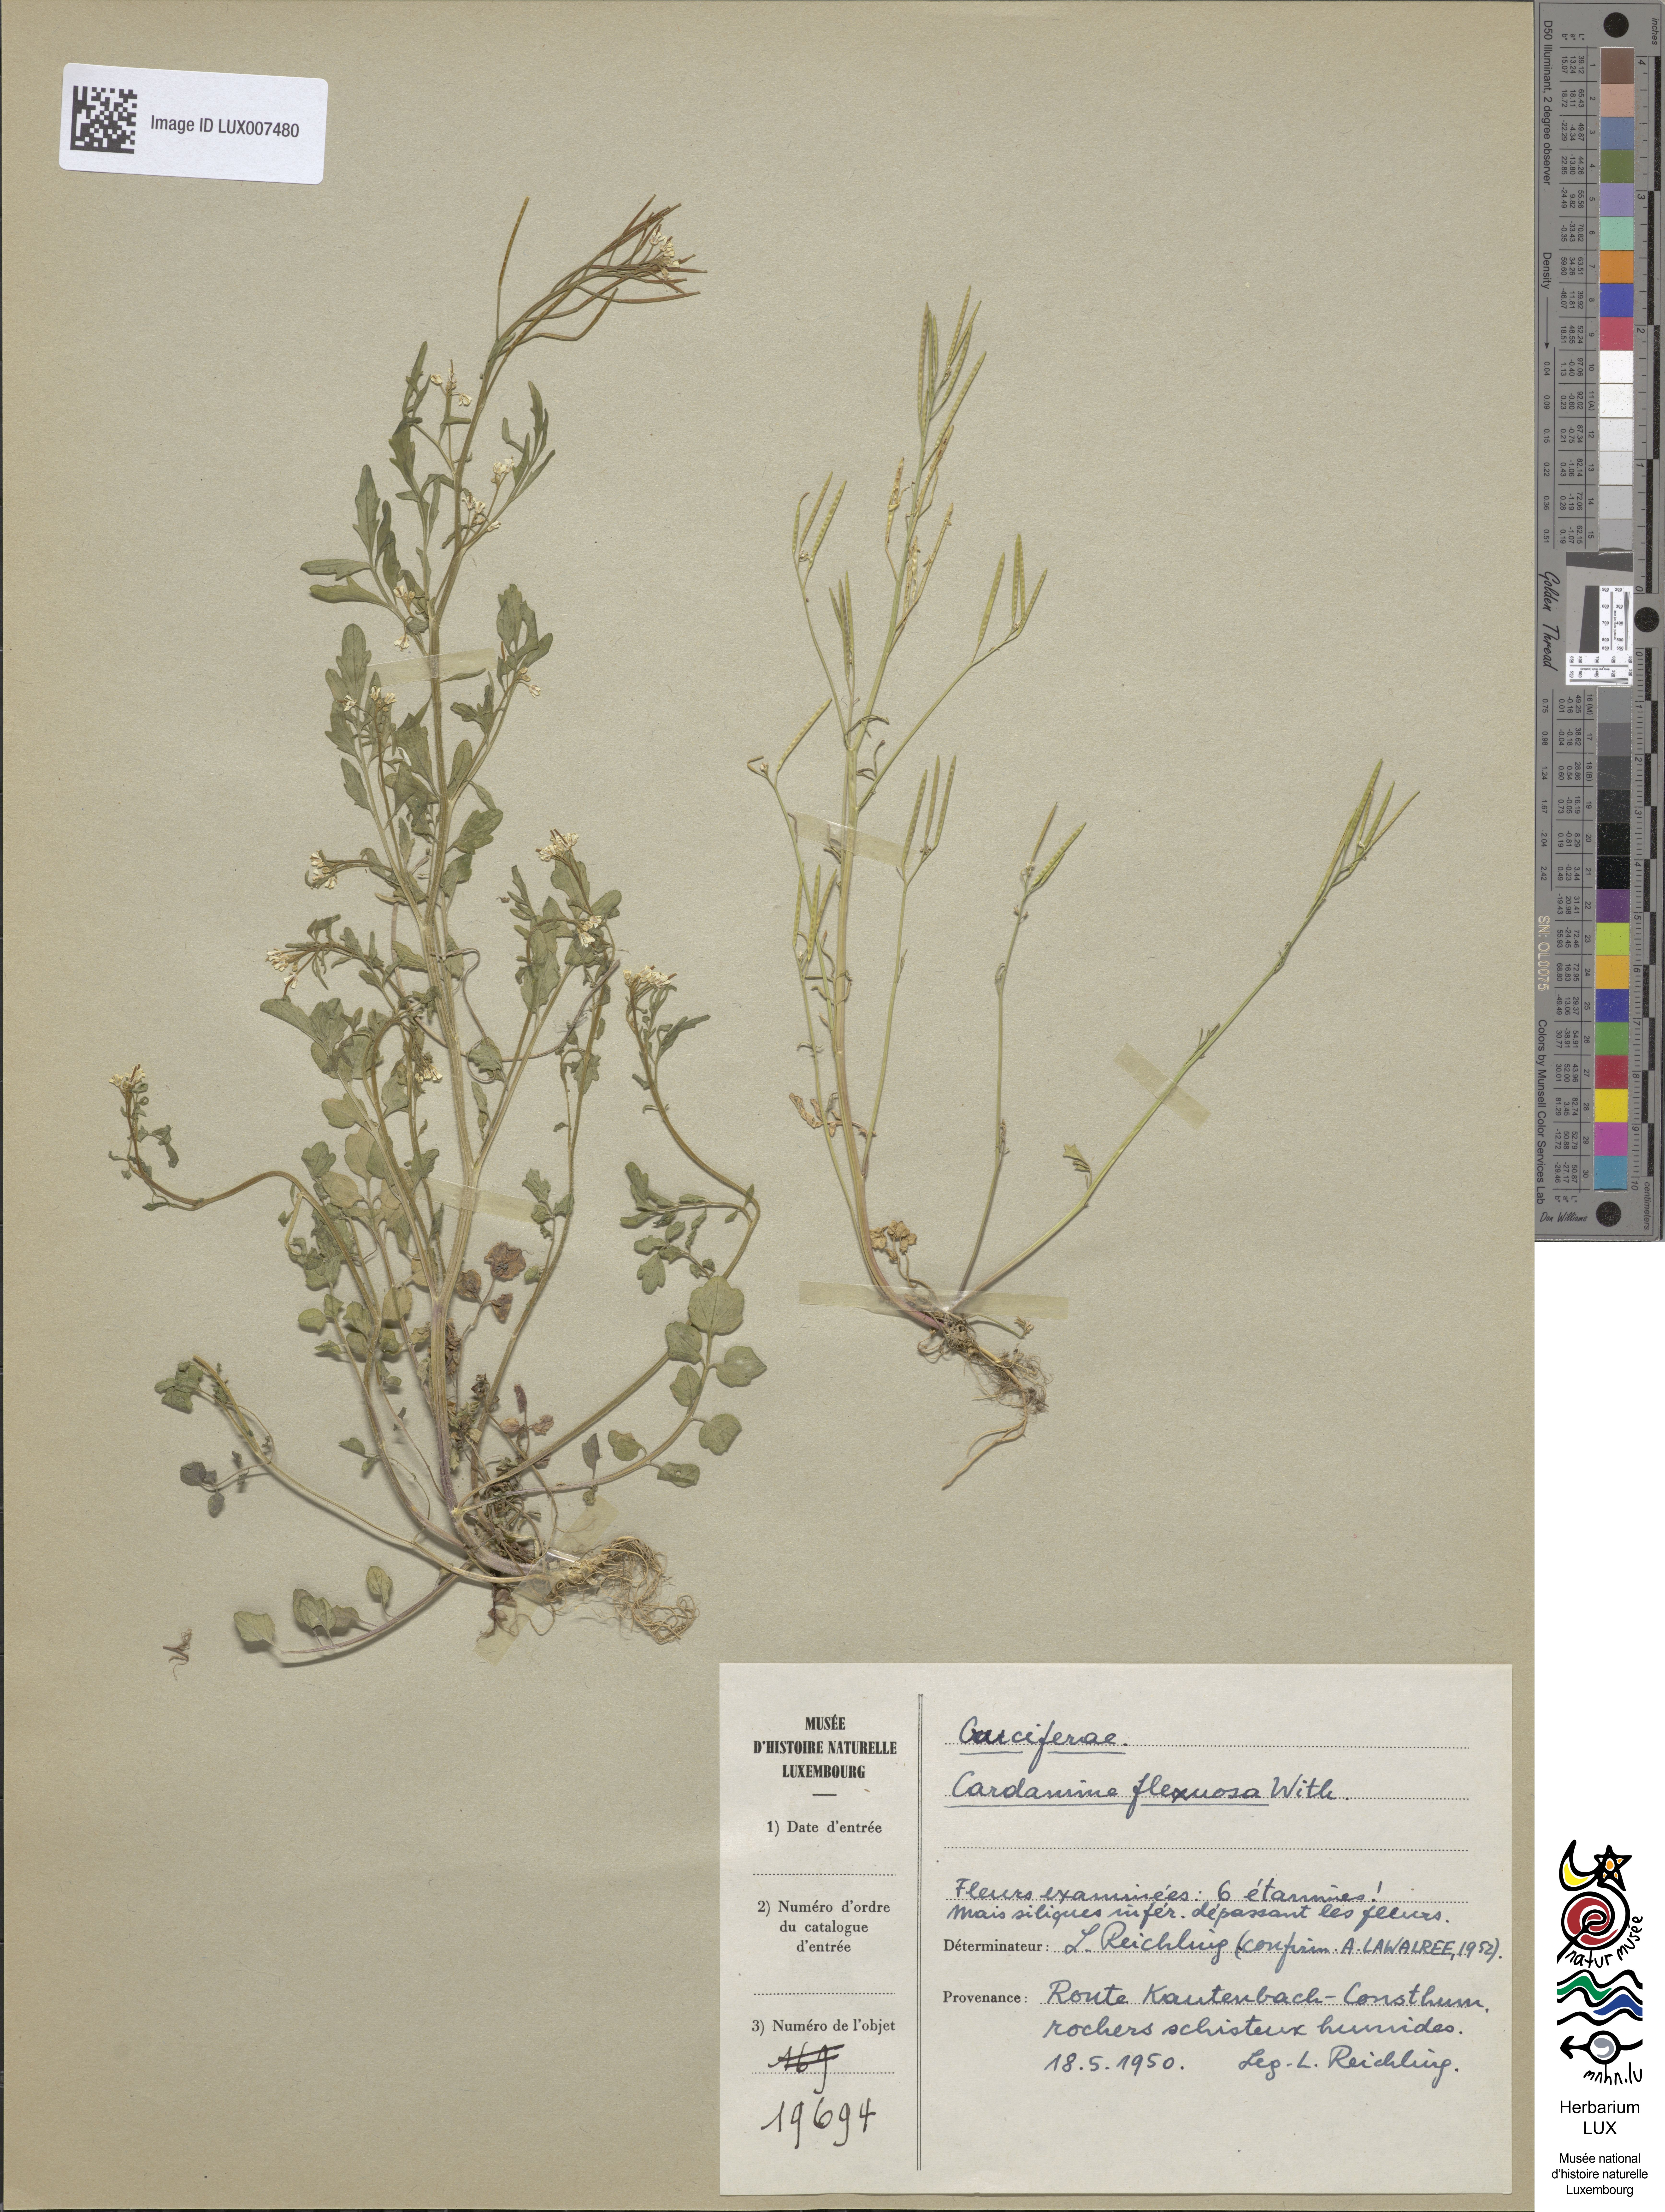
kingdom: Plantae
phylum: Tracheophyta
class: Magnoliopsida
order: Brassicales
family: Brassicaceae
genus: Cardamine
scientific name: Cardamine flexuosa
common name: Woodland bittercress
